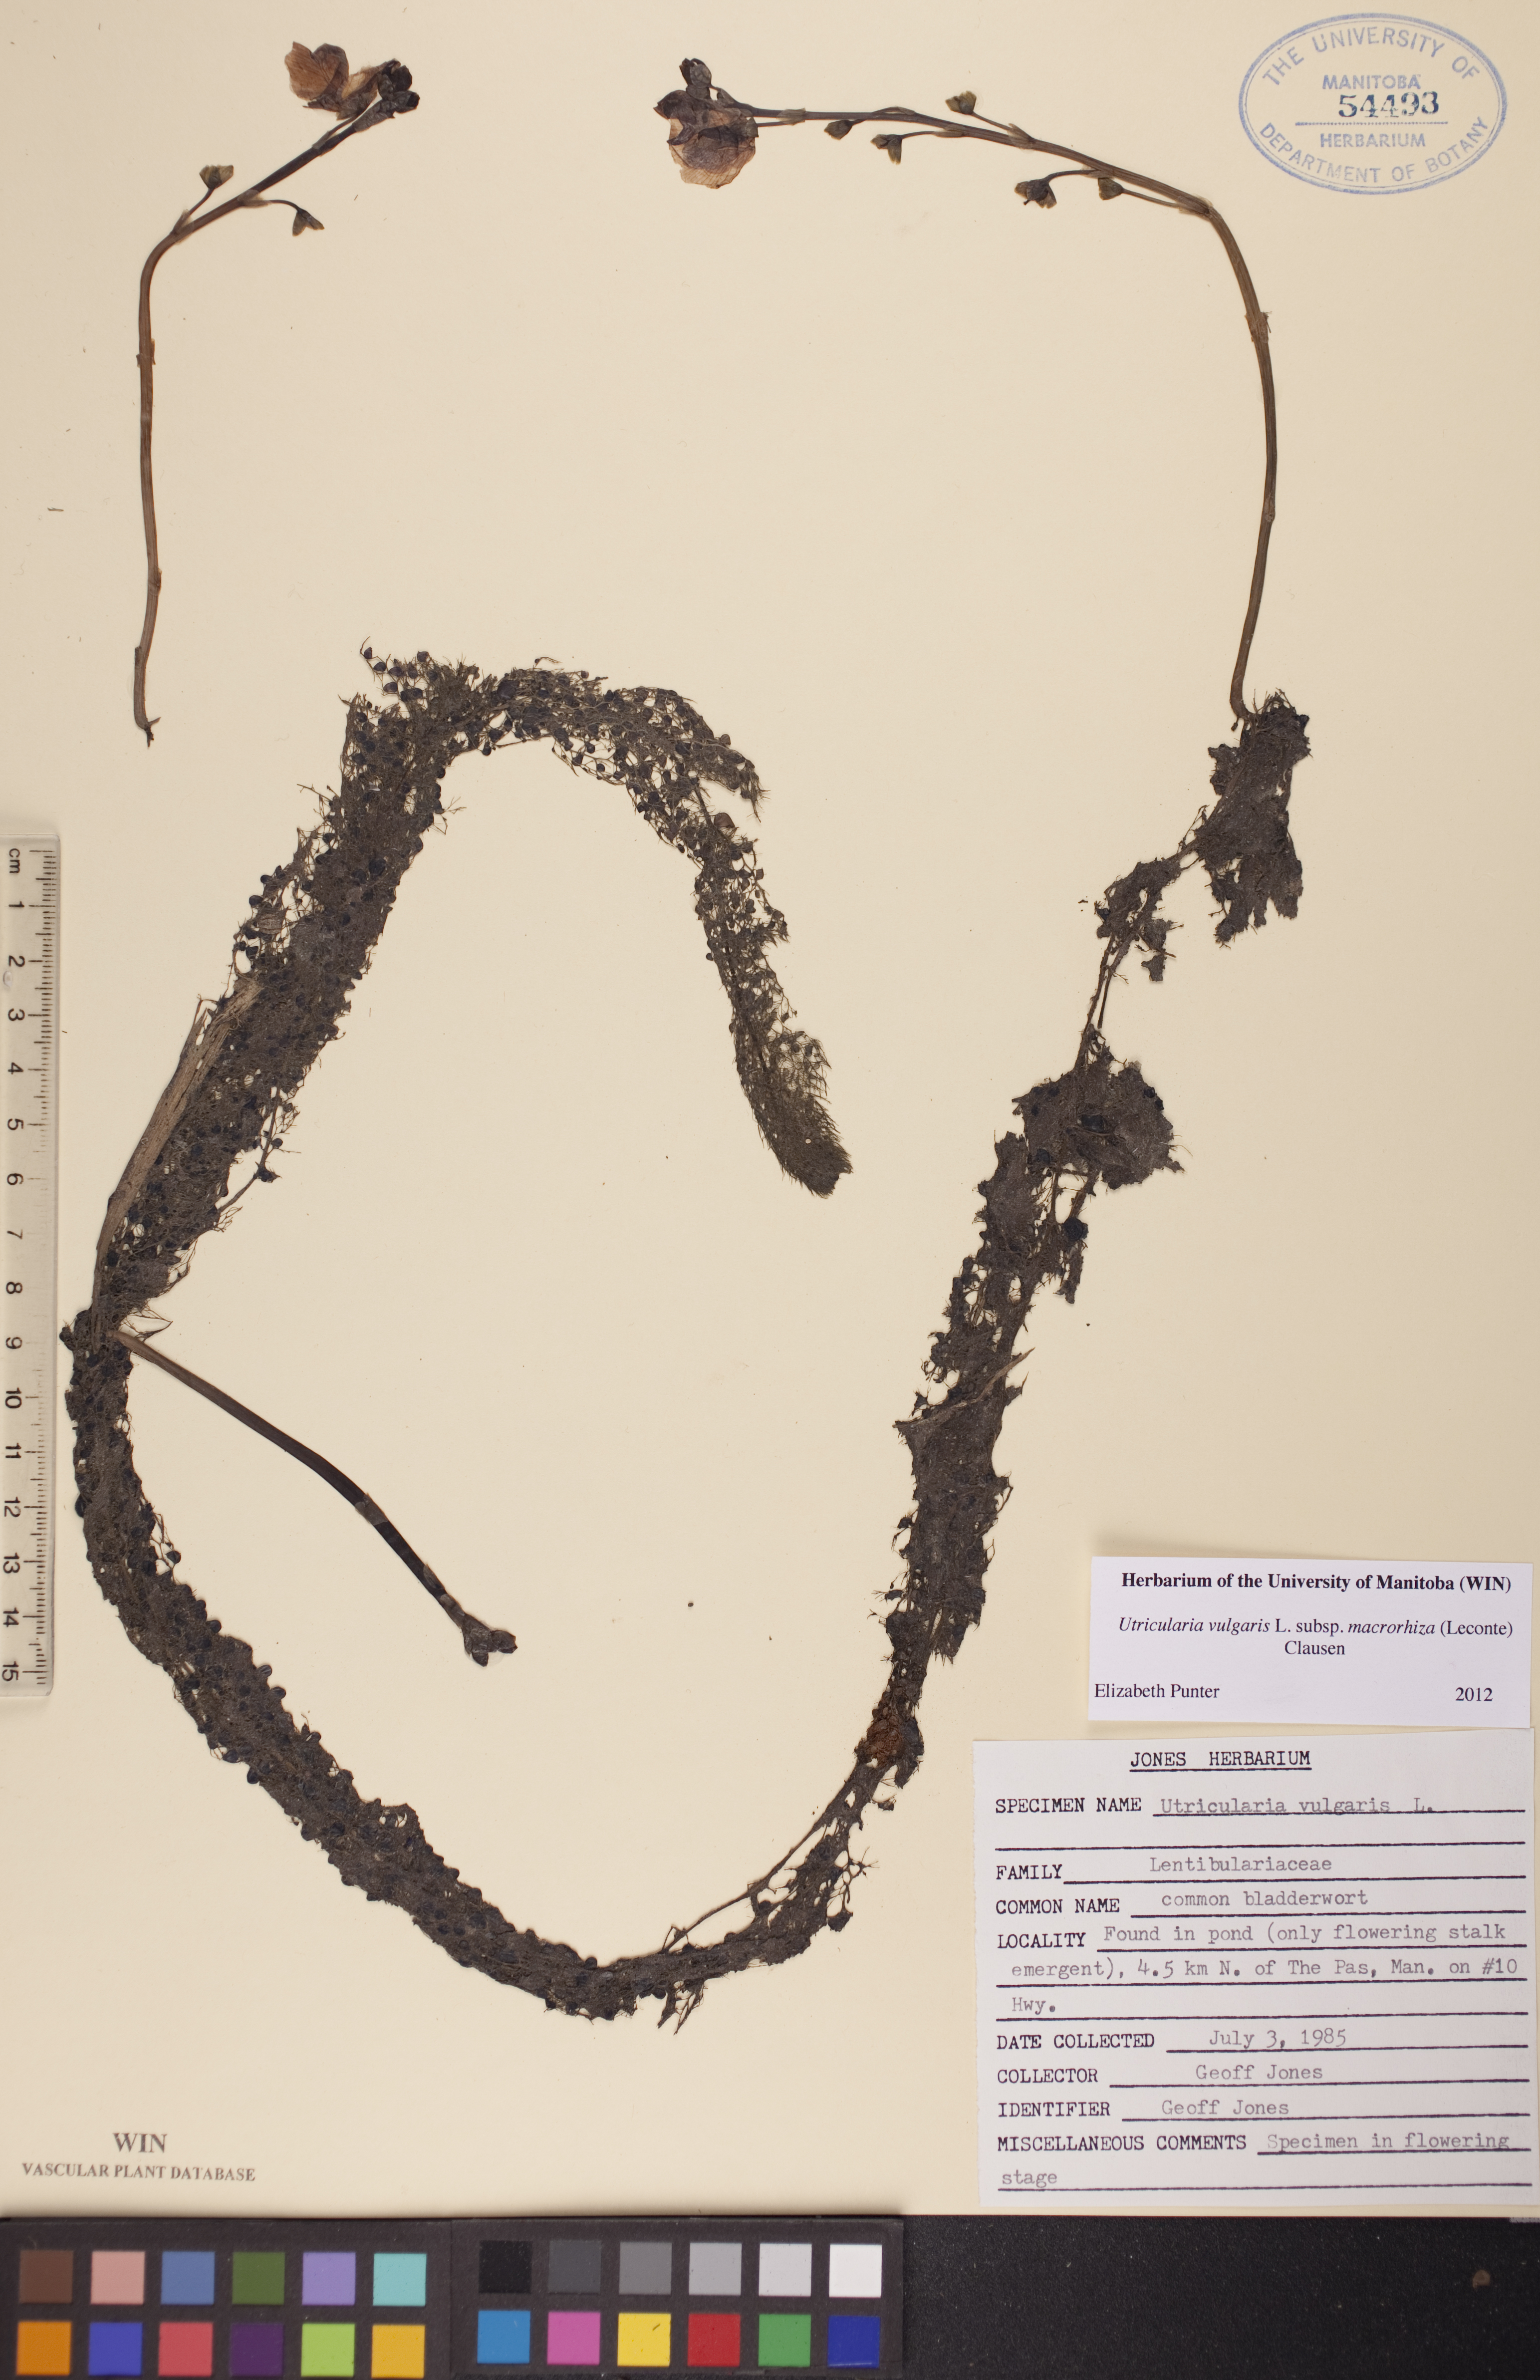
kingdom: Plantae
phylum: Tracheophyta
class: Magnoliopsida
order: Lamiales
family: Lentibulariaceae
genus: Utricularia
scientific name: Utricularia macrorhiza
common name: Common bladderwort
